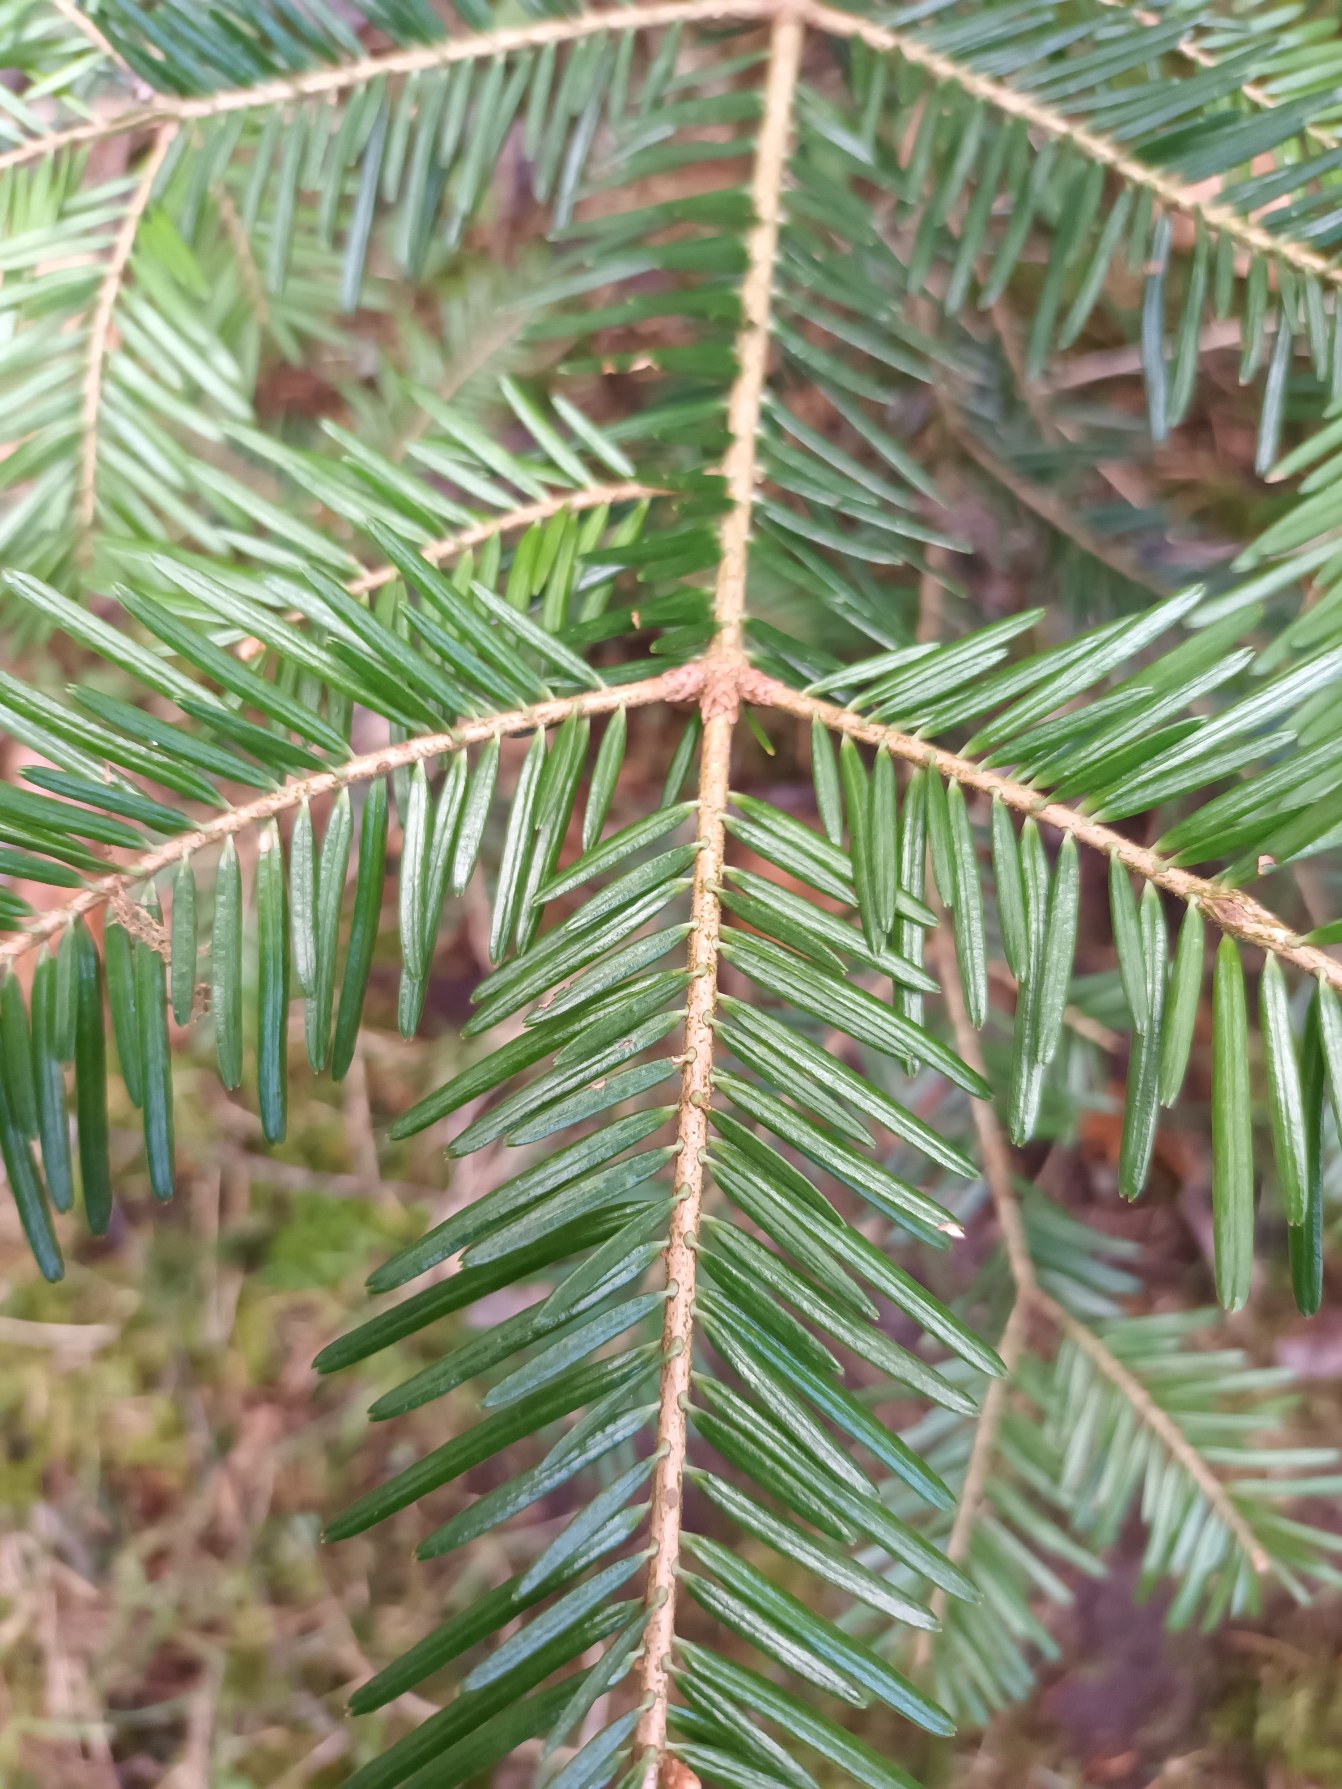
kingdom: Plantae
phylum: Tracheophyta
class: Pinopsida
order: Pinales
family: Pinaceae
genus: Abies
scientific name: Abies alba
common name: Almindelig ædelgran
